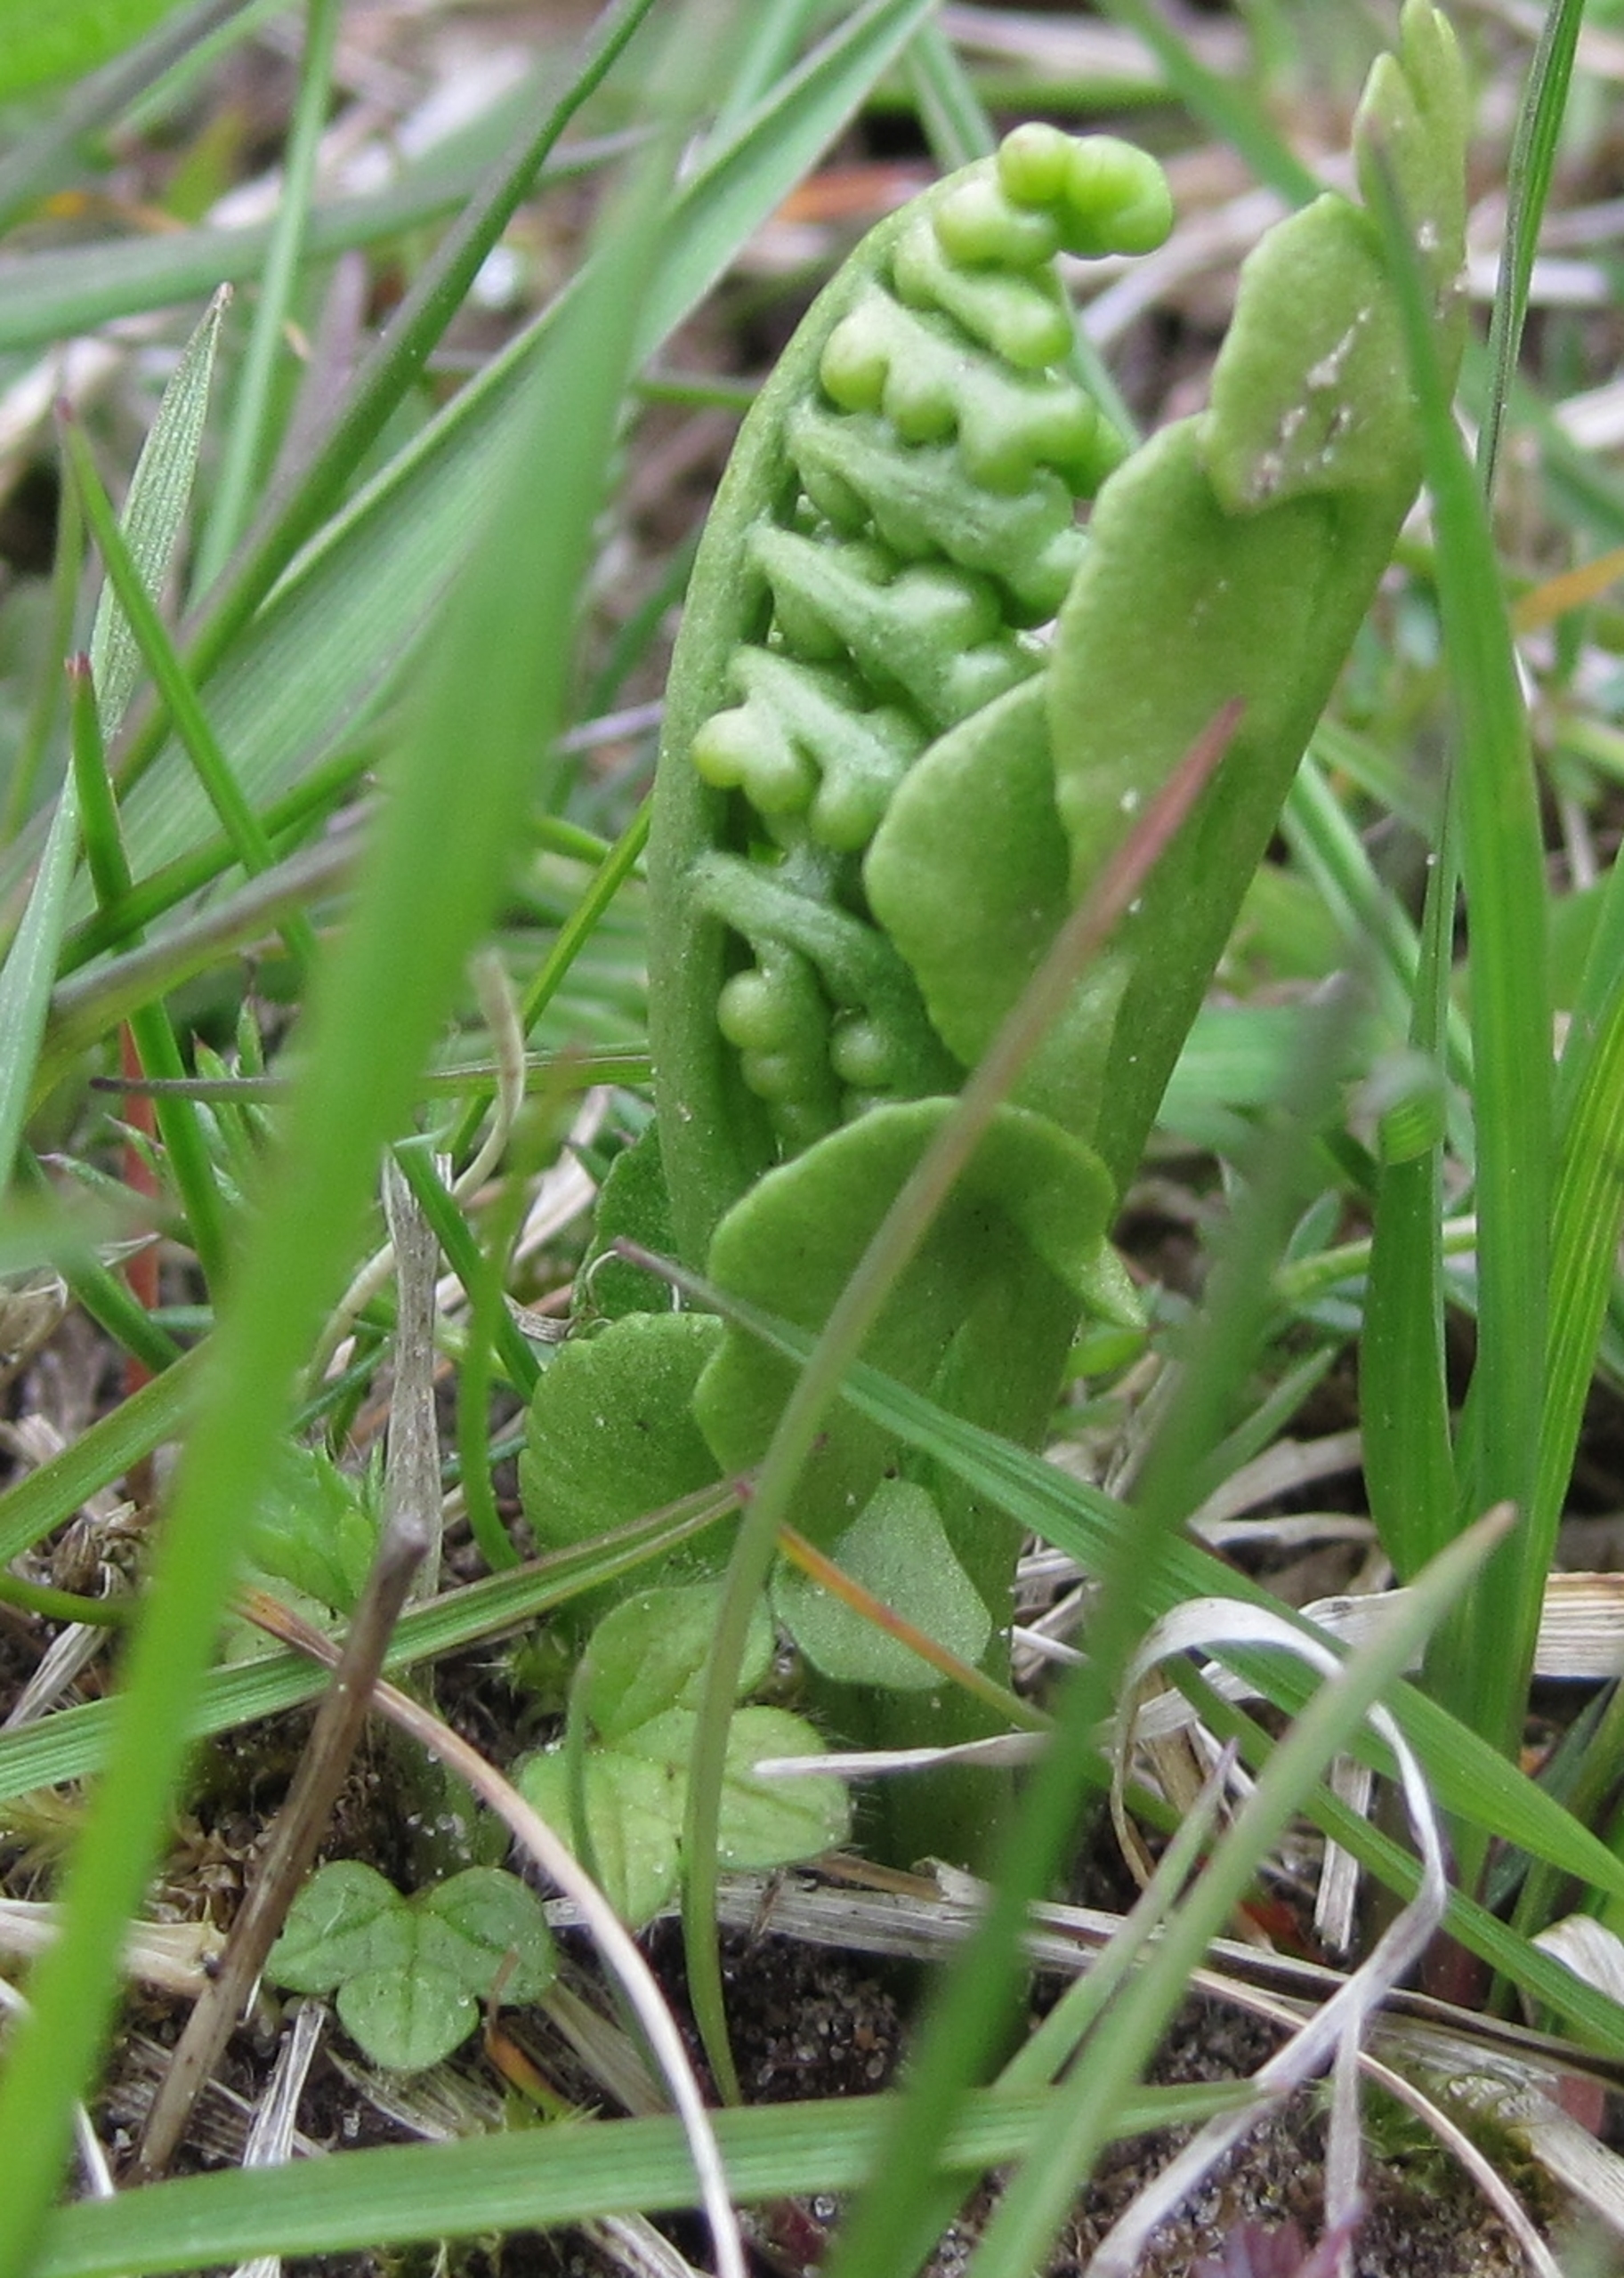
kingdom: Plantae
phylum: Tracheophyta
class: Polypodiopsida
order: Ophioglossales
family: Ophioglossaceae
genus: Botrychium
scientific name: Botrychium lunaria
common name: Almindelig månerude
